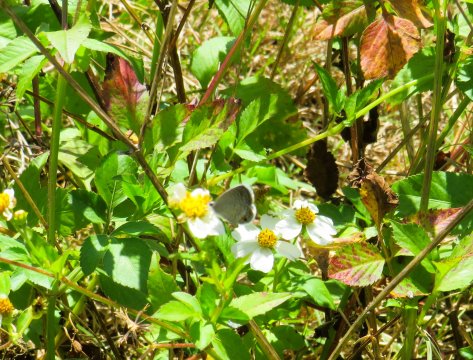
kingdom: Animalia
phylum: Arthropoda
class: Insecta
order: Lepidoptera
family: Lycaenidae
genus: Hemiargus
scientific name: Hemiargus ceraunus
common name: Ceraunus Blue
